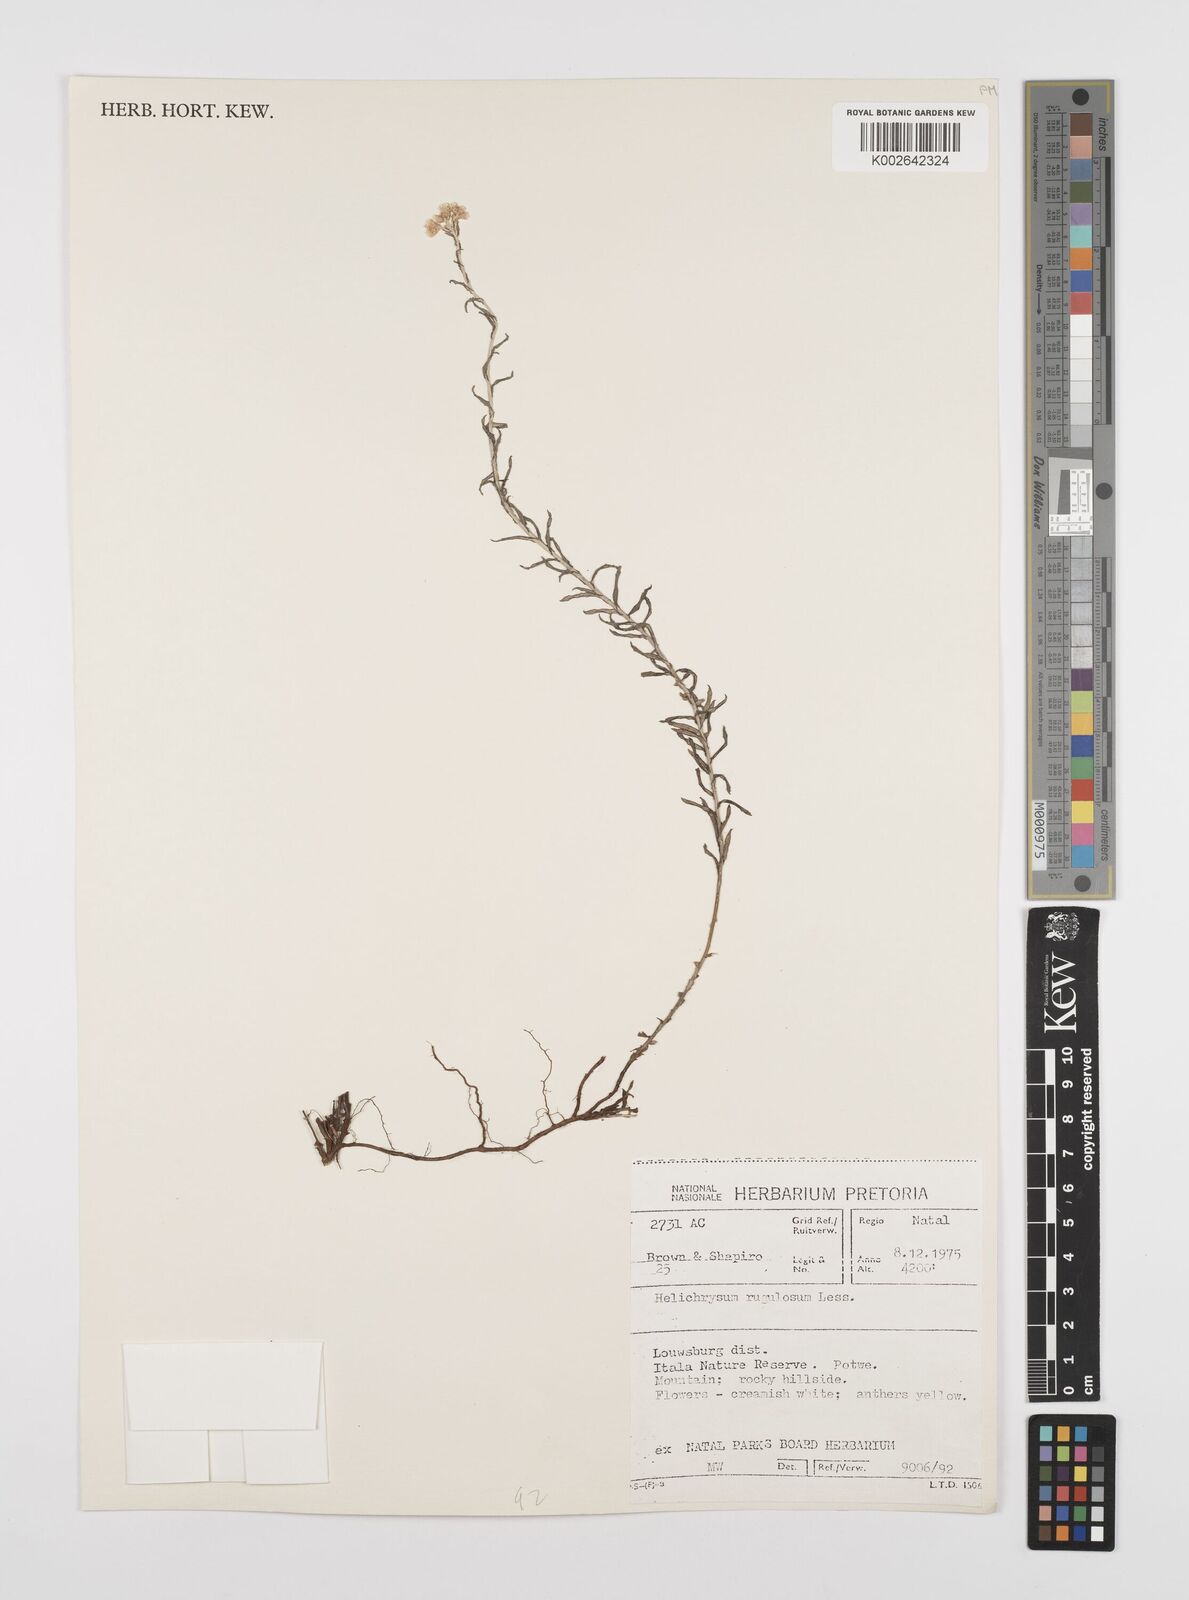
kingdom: Plantae
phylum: Tracheophyta
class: Magnoliopsida
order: Asterales
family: Asteraceae
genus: Helichrysum
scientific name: Helichrysum rugulosum
